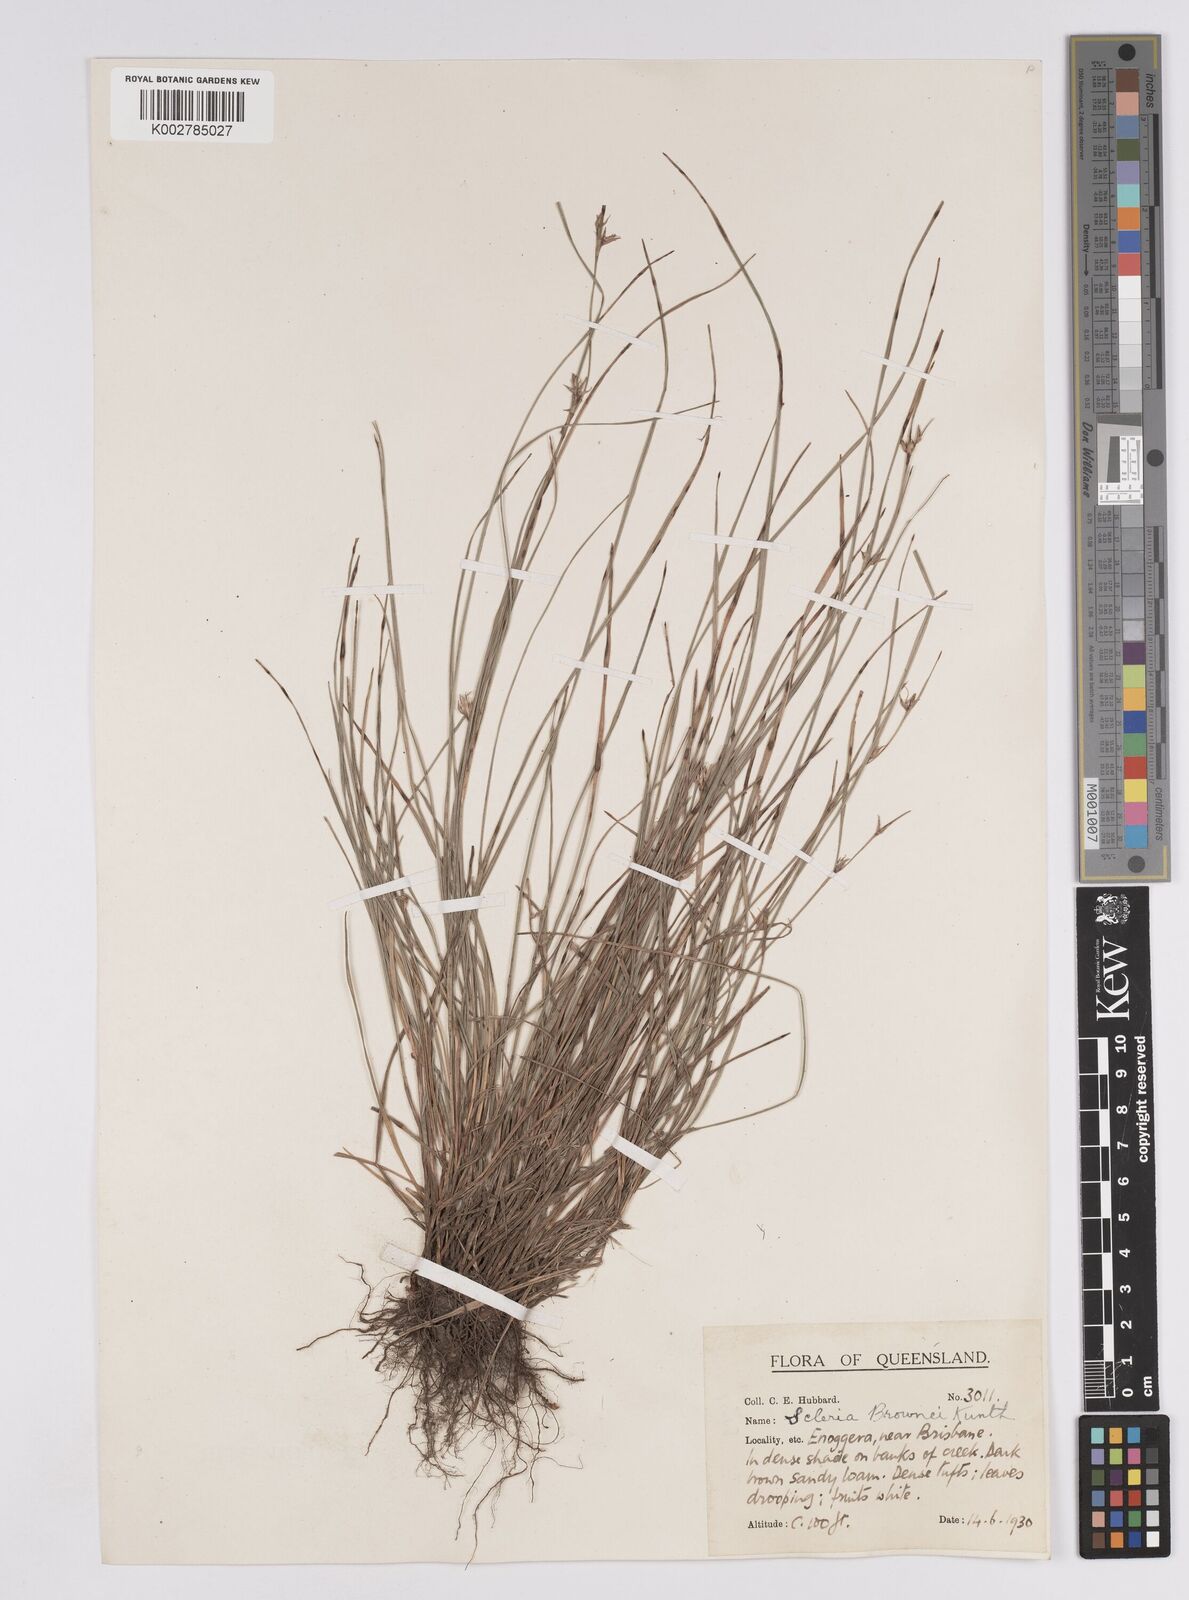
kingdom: Plantae
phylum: Tracheophyta
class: Liliopsida
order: Poales
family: Cyperaceae
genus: Scleria
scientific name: Scleria brownii
